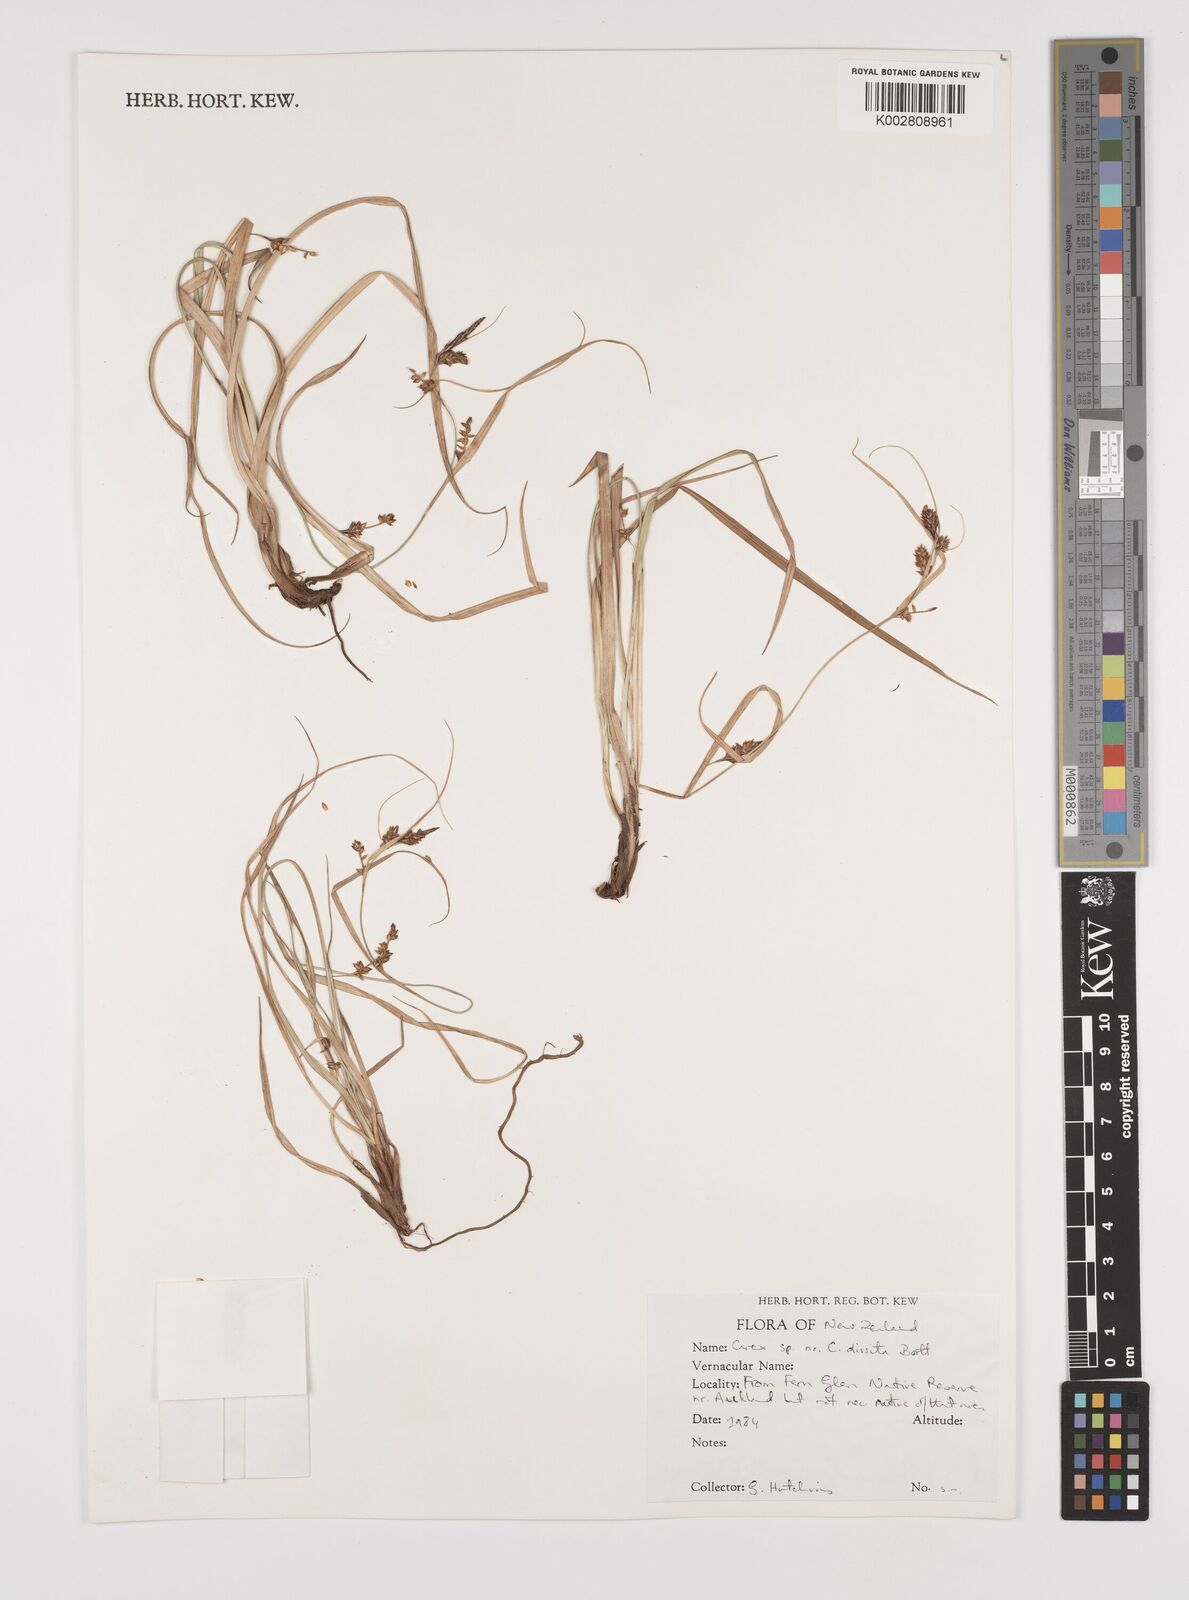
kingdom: Plantae
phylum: Tracheophyta
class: Liliopsida
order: Poales
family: Cyperaceae
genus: Carex
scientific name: Carex
